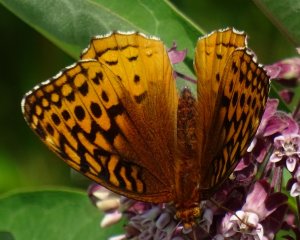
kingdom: Animalia
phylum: Arthropoda
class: Insecta
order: Lepidoptera
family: Nymphalidae
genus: Speyeria
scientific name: Speyeria cybele
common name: Great Spangled Fritillary
